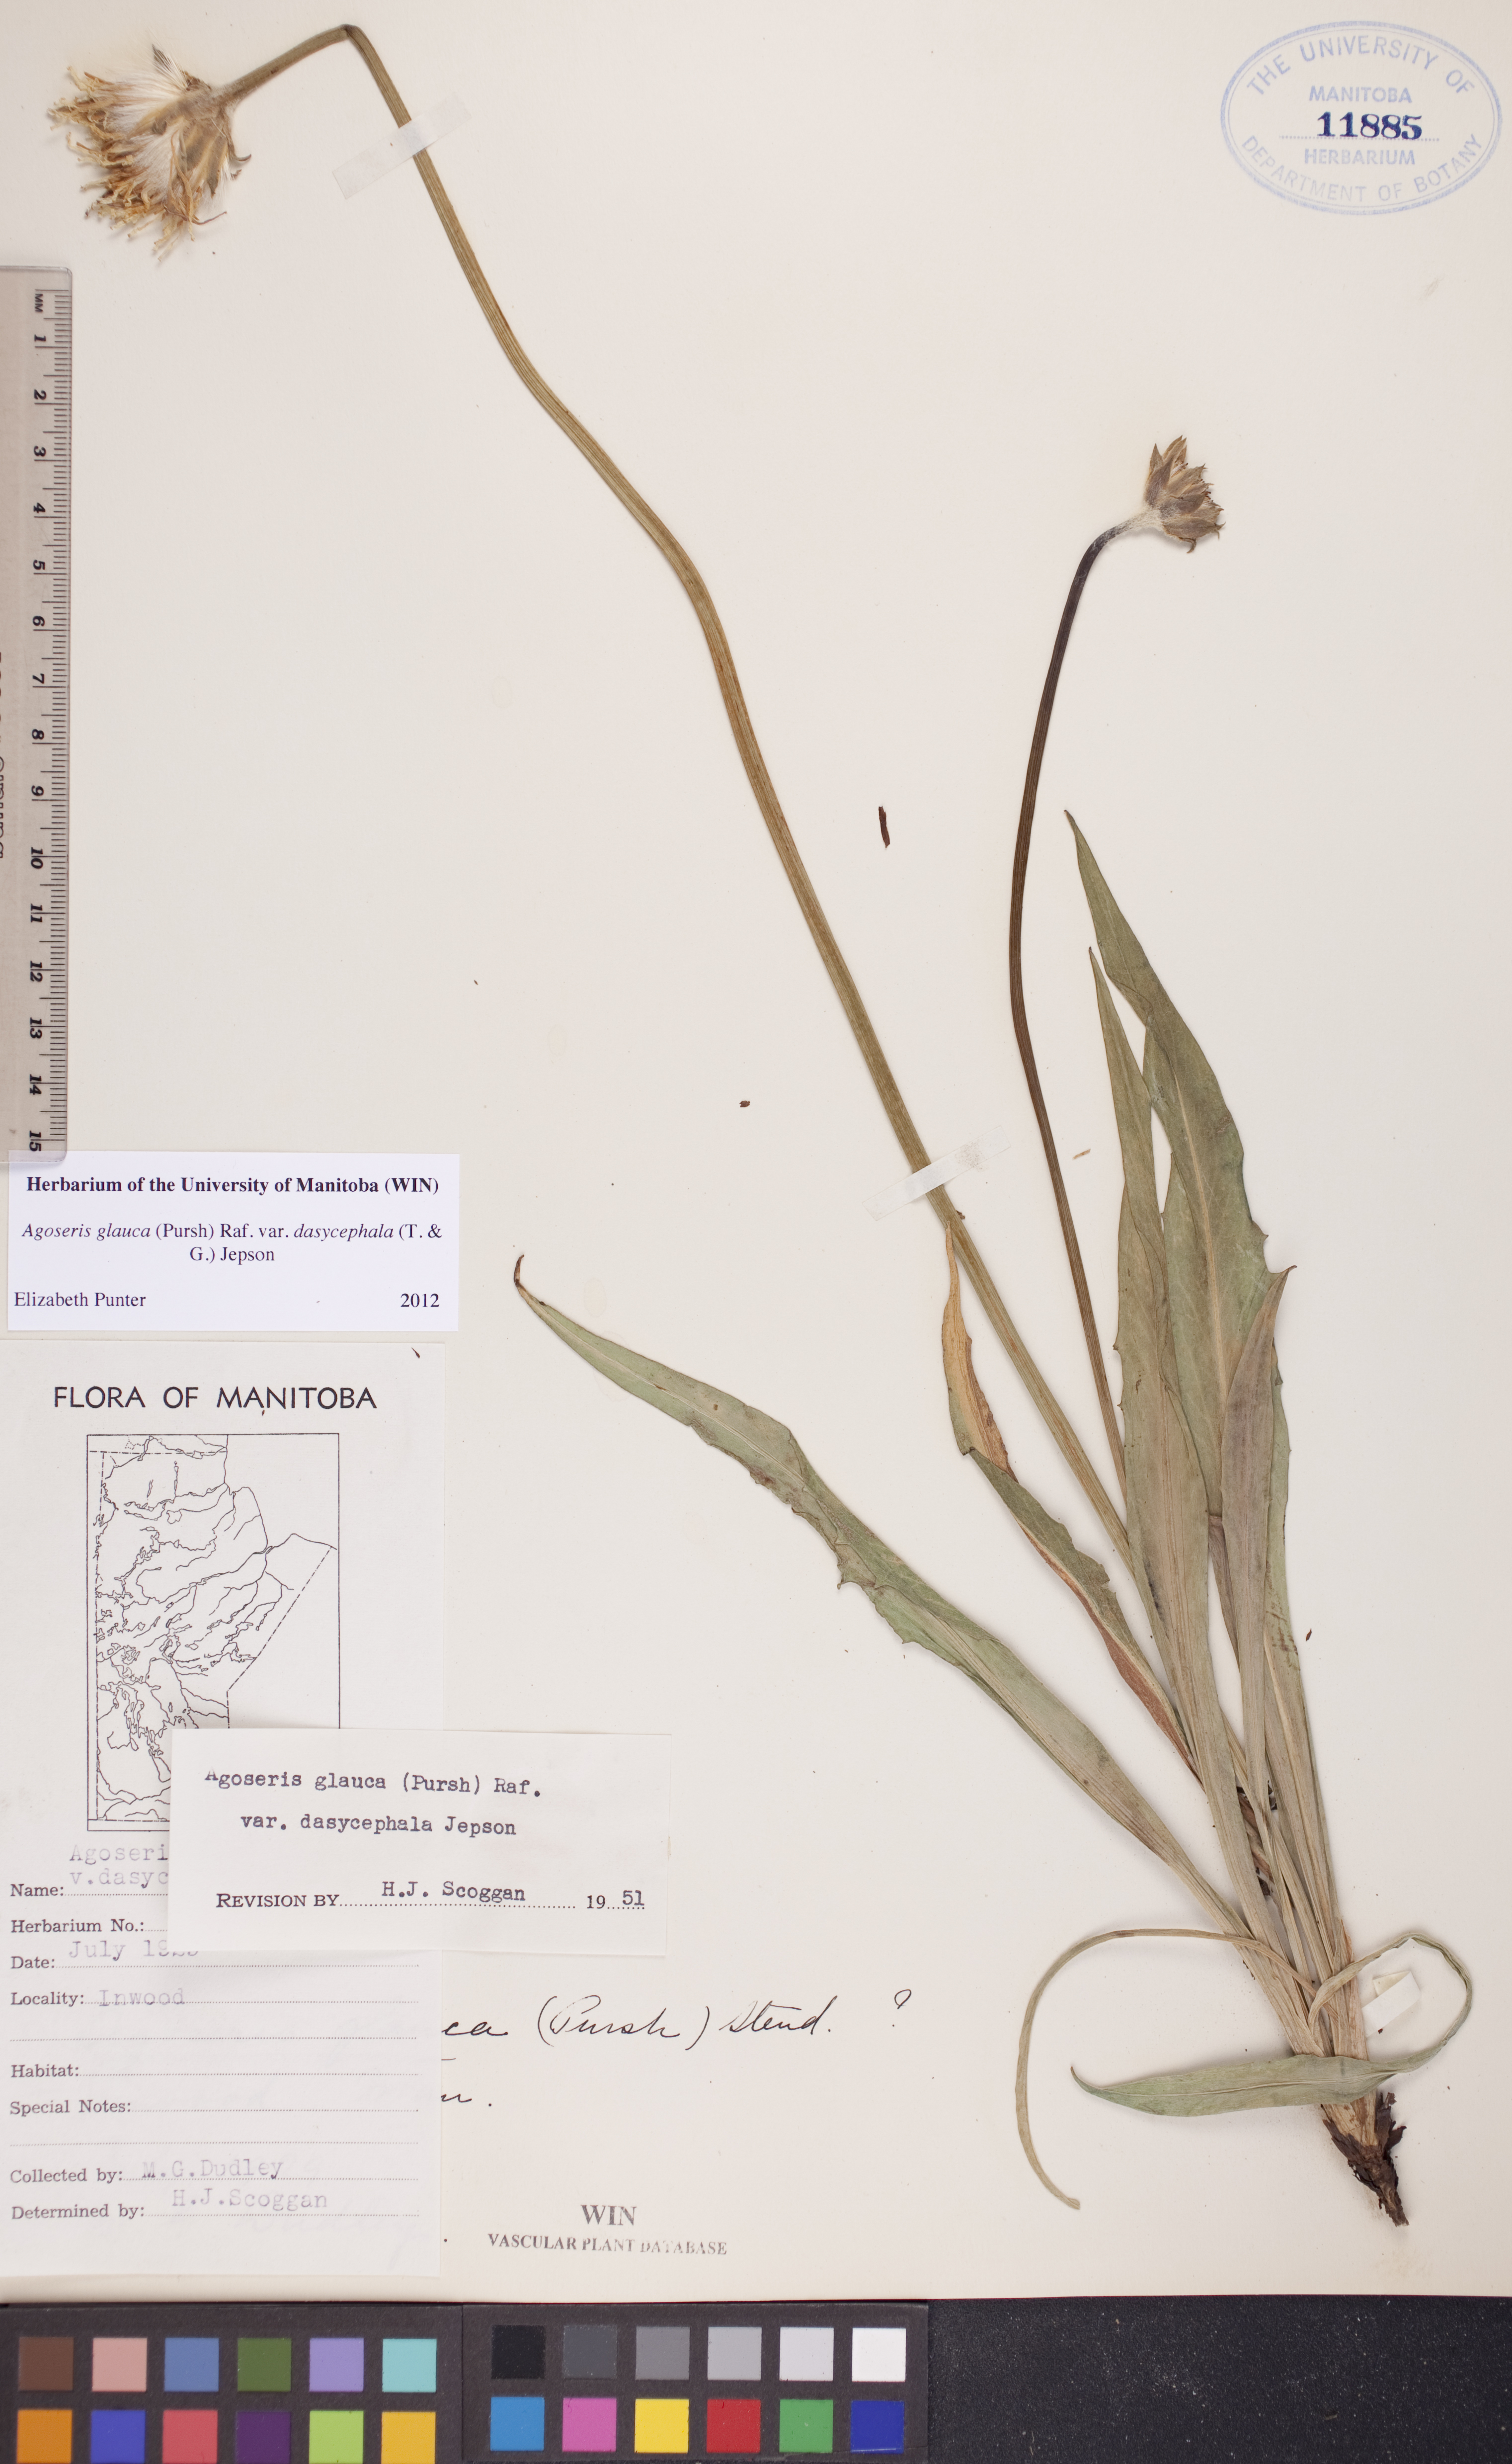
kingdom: Plantae
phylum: Tracheophyta
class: Magnoliopsida
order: Asterales
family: Asteraceae
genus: Agoseris
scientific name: Agoseris glauca
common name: Prairie agoseris
